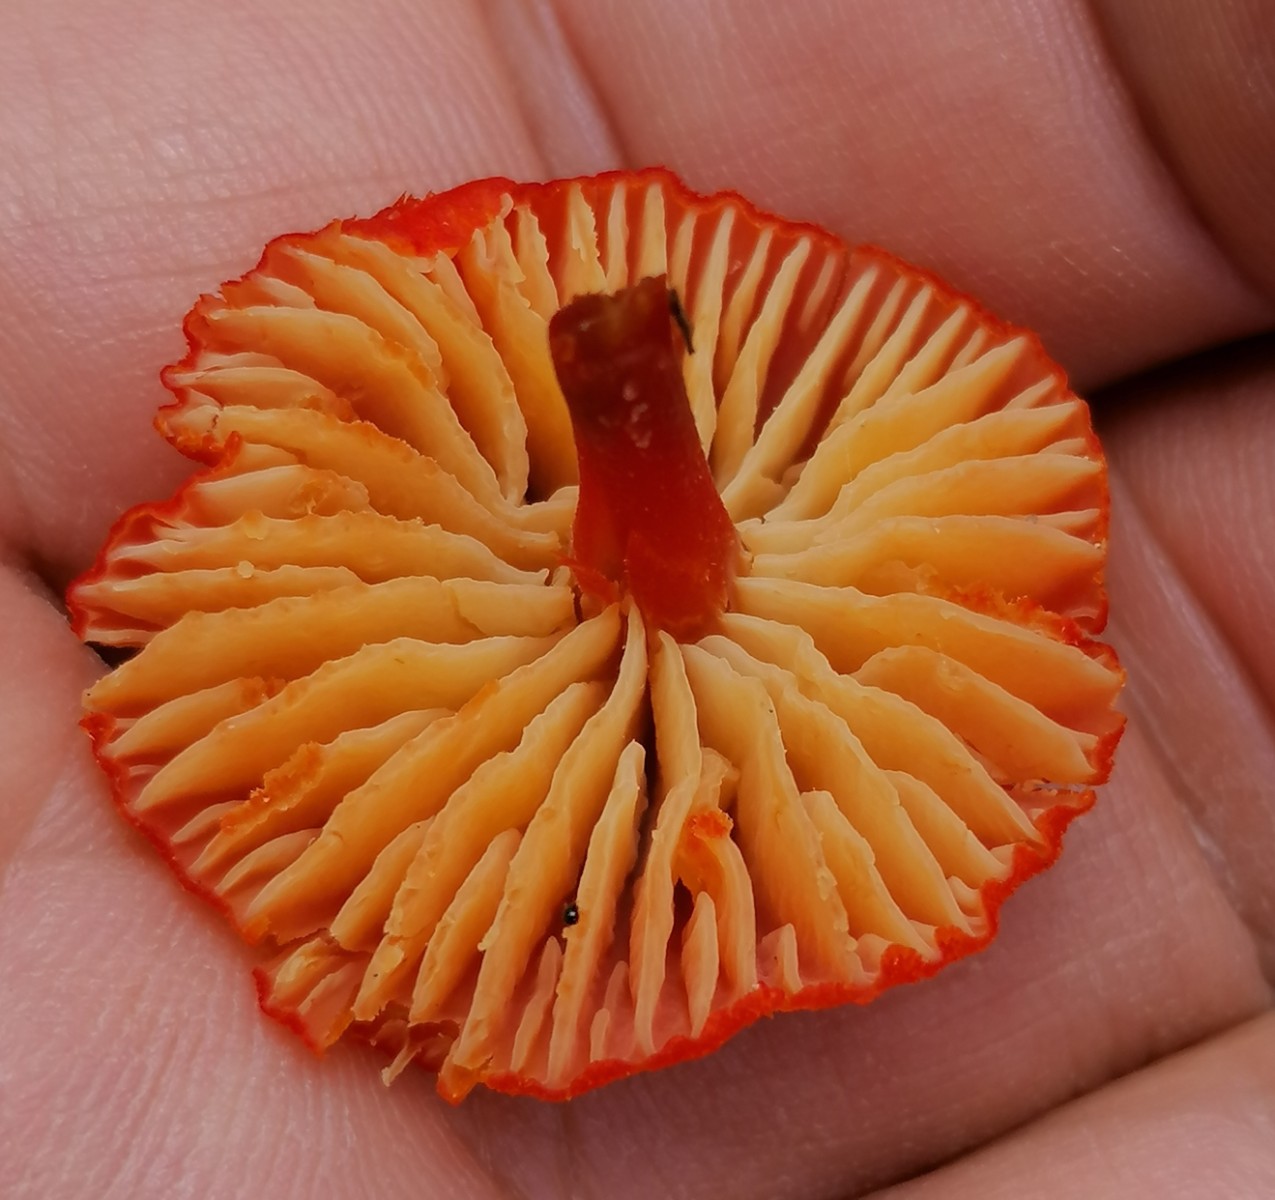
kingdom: Fungi
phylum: Basidiomycota
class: Agaricomycetes
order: Agaricales
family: Hygrophoraceae
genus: Hygrocybe
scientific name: Hygrocybe
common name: vokshat
